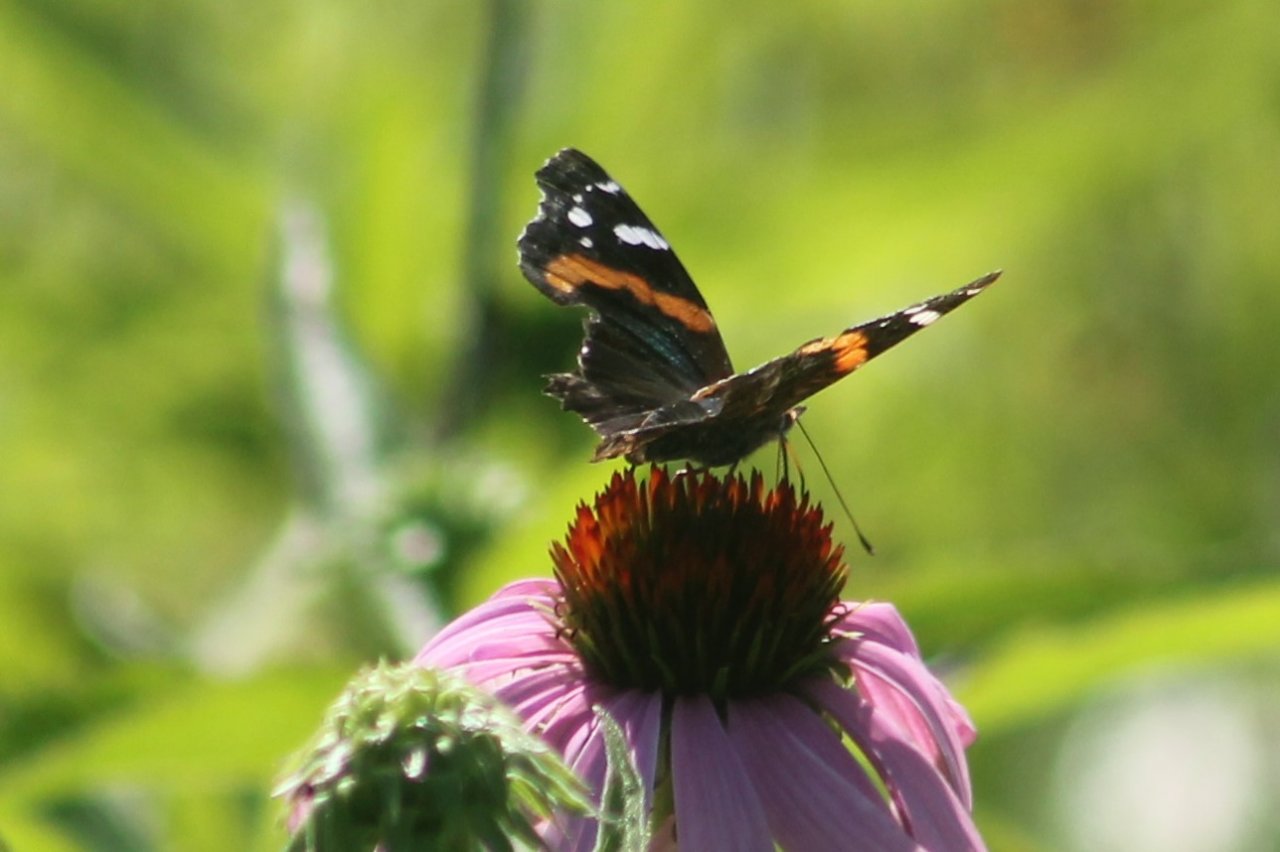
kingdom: Animalia
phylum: Arthropoda
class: Insecta
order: Lepidoptera
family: Nymphalidae
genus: Vanessa
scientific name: Vanessa atalanta
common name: Red Admiral
